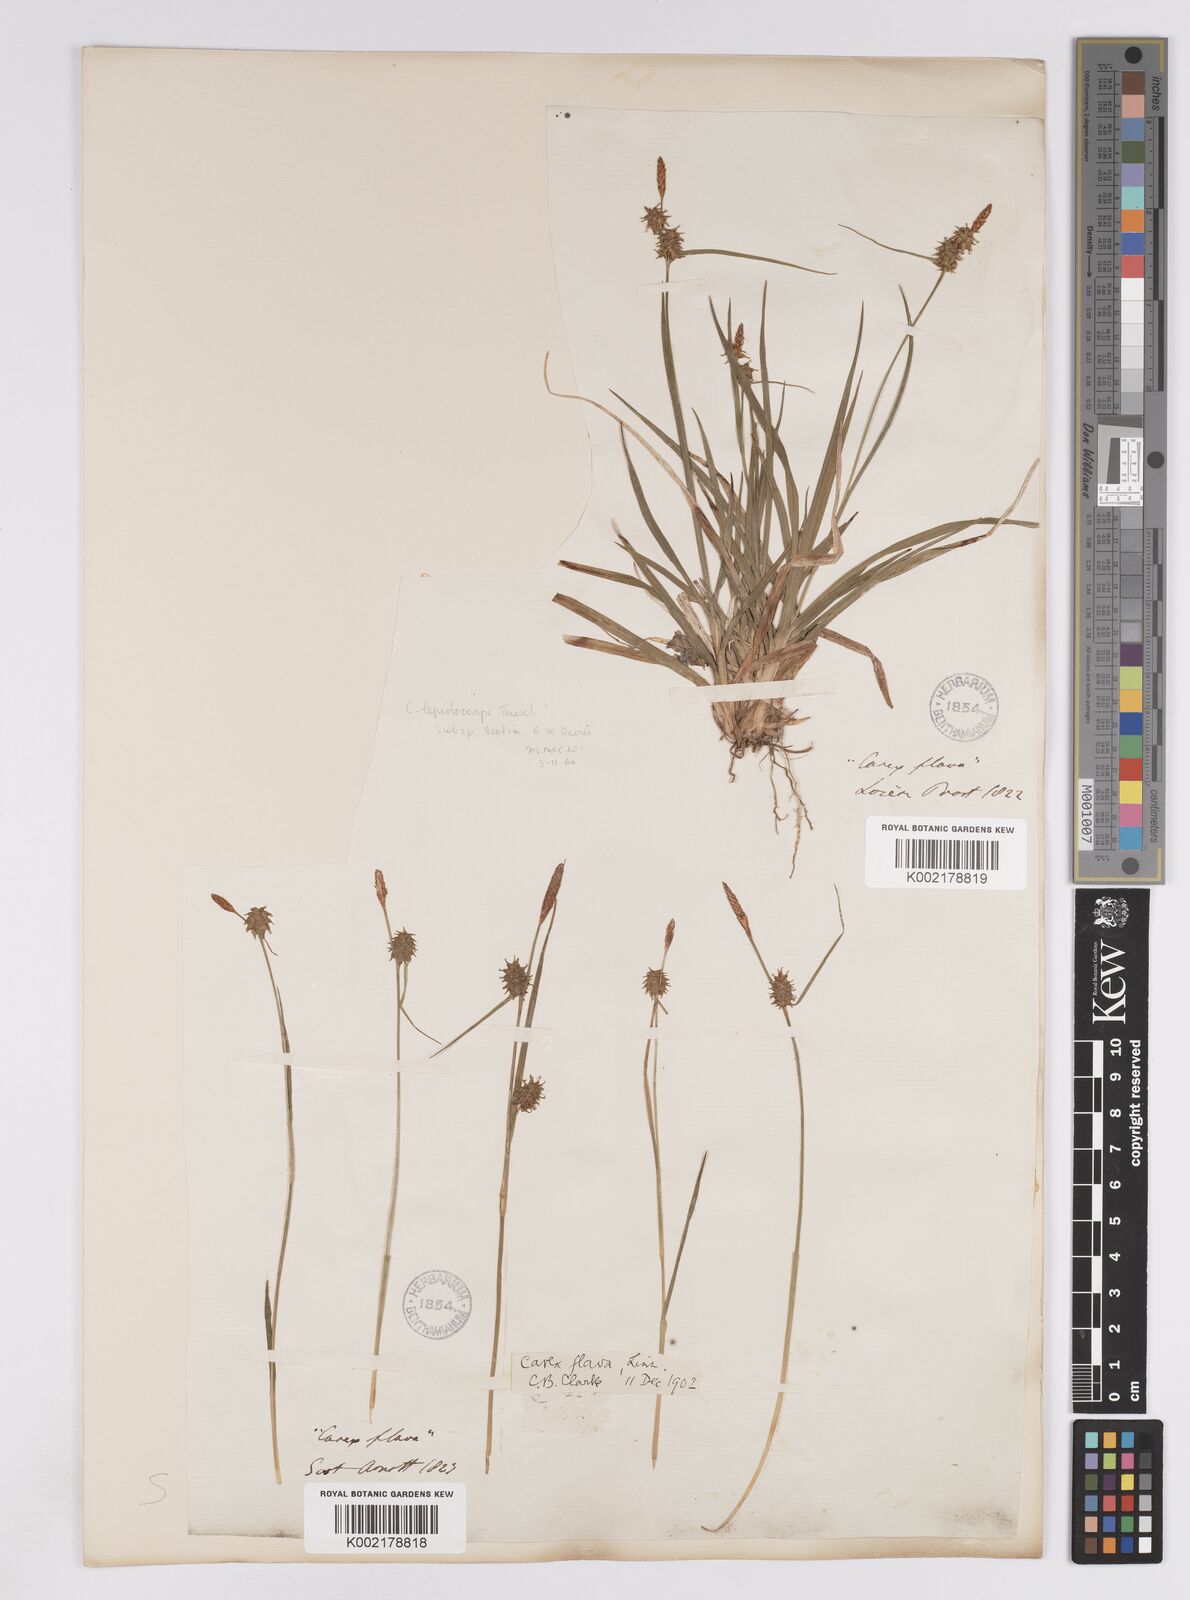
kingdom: Plantae
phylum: Tracheophyta
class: Liliopsida
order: Poales
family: Cyperaceae
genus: Carex
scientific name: Carex lepidocarpa
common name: Long-stalked yellow-sedge
